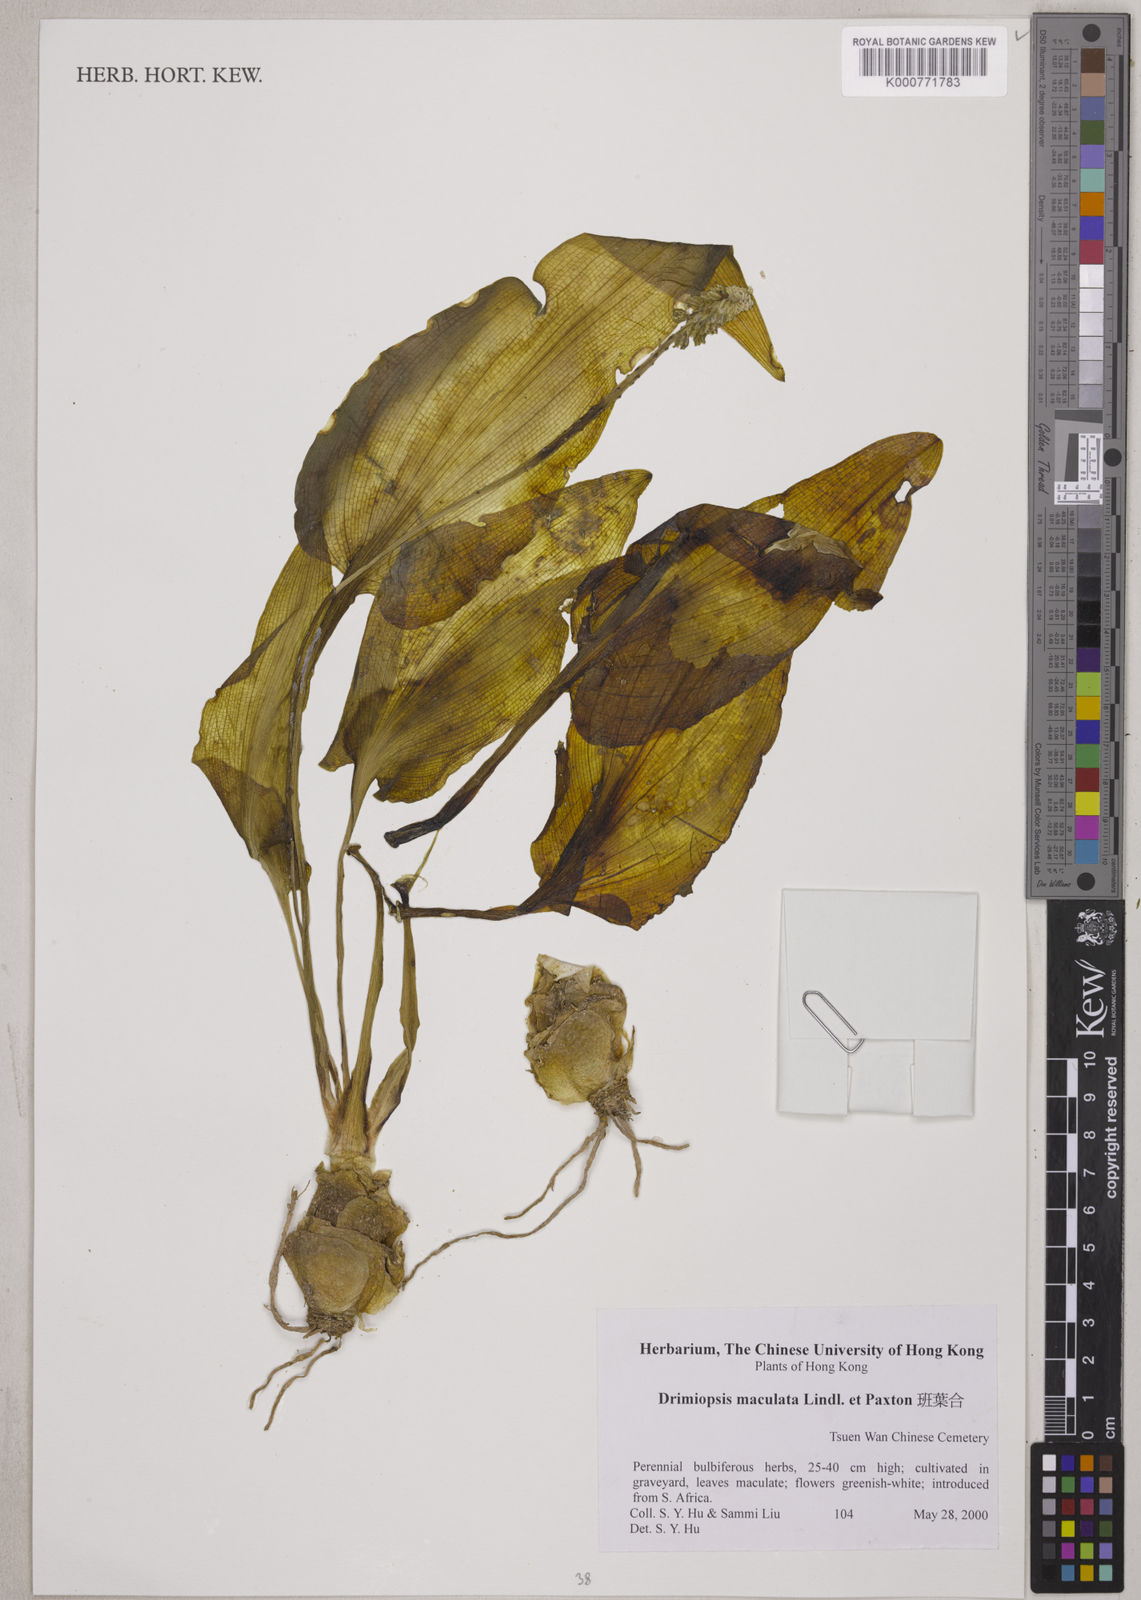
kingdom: Plantae
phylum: Tracheophyta
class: Liliopsida
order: Asparagales
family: Asparagaceae
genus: Drimiopsis
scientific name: Drimiopsis maculata
